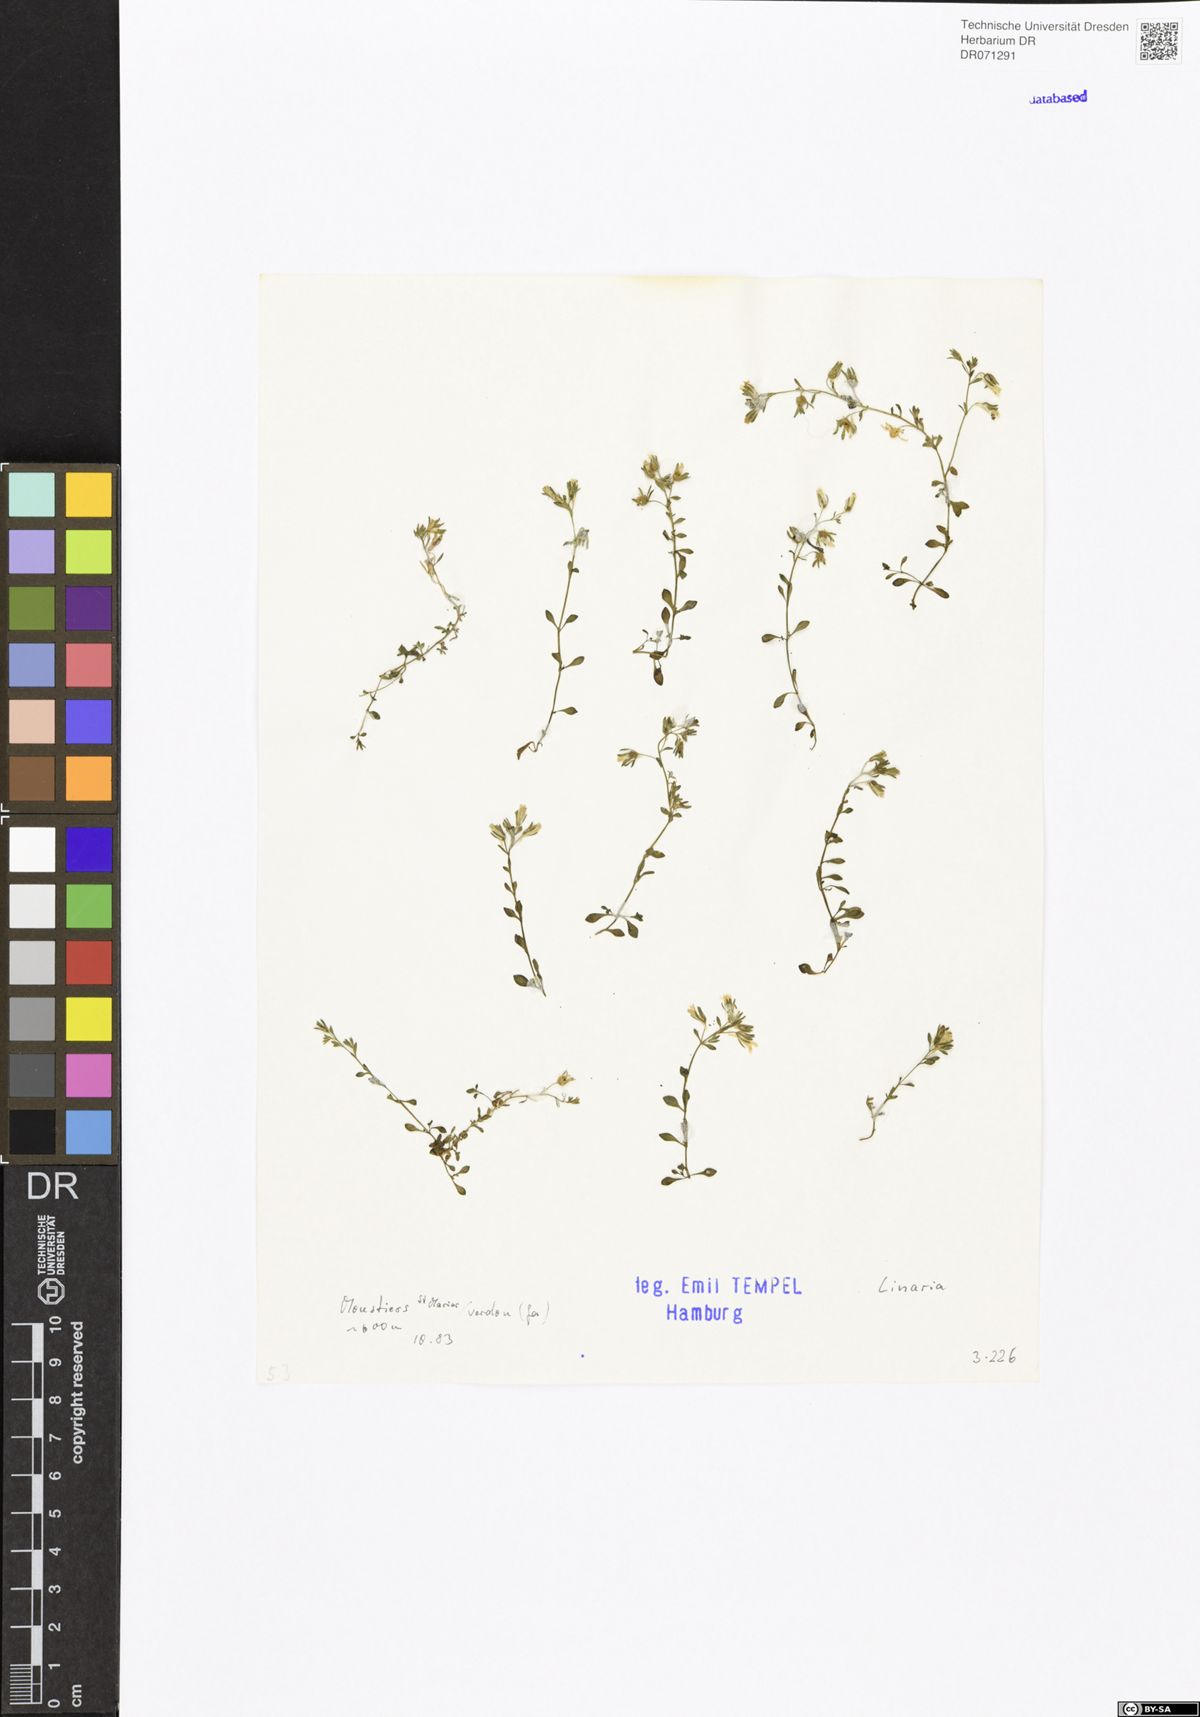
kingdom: Plantae
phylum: Tracheophyta
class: Magnoliopsida
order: Lamiales
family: Plantaginaceae
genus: Linaria
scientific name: Linaria
